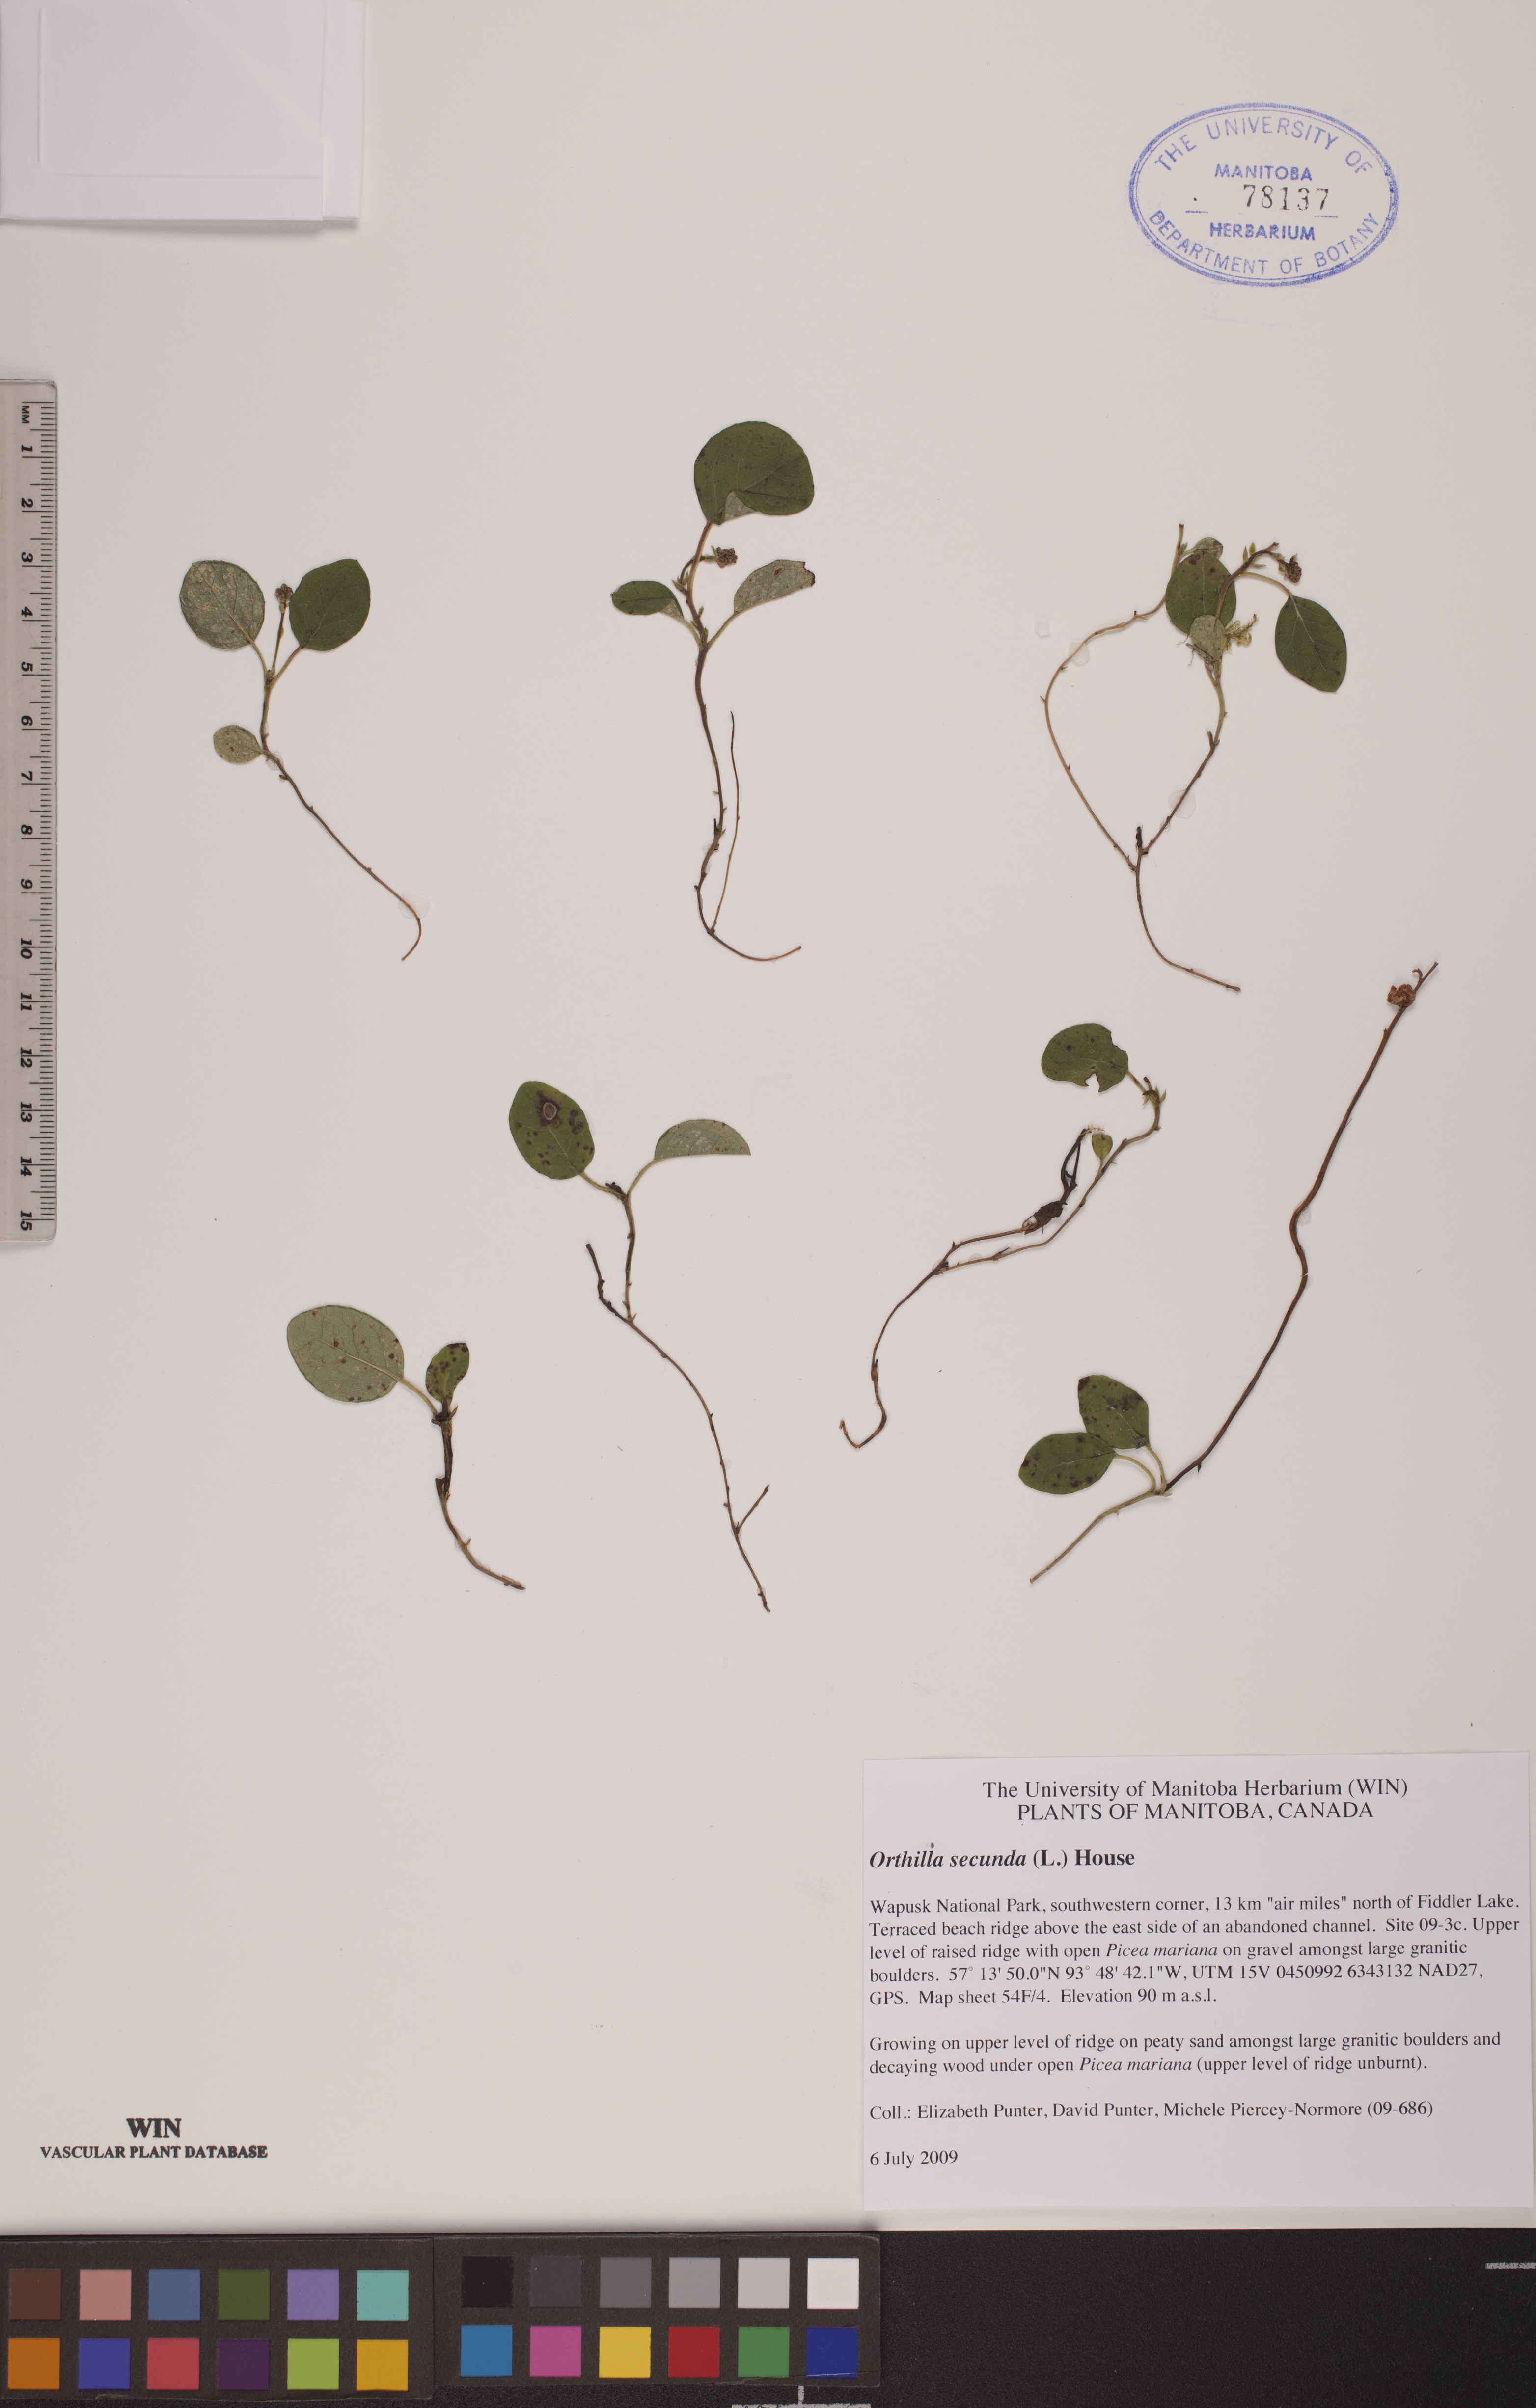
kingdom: Plantae
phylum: Tracheophyta
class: Magnoliopsida
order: Ericales
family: Ericaceae
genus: Orthilia
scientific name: Orthilia secunda
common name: One-sided orthilia
